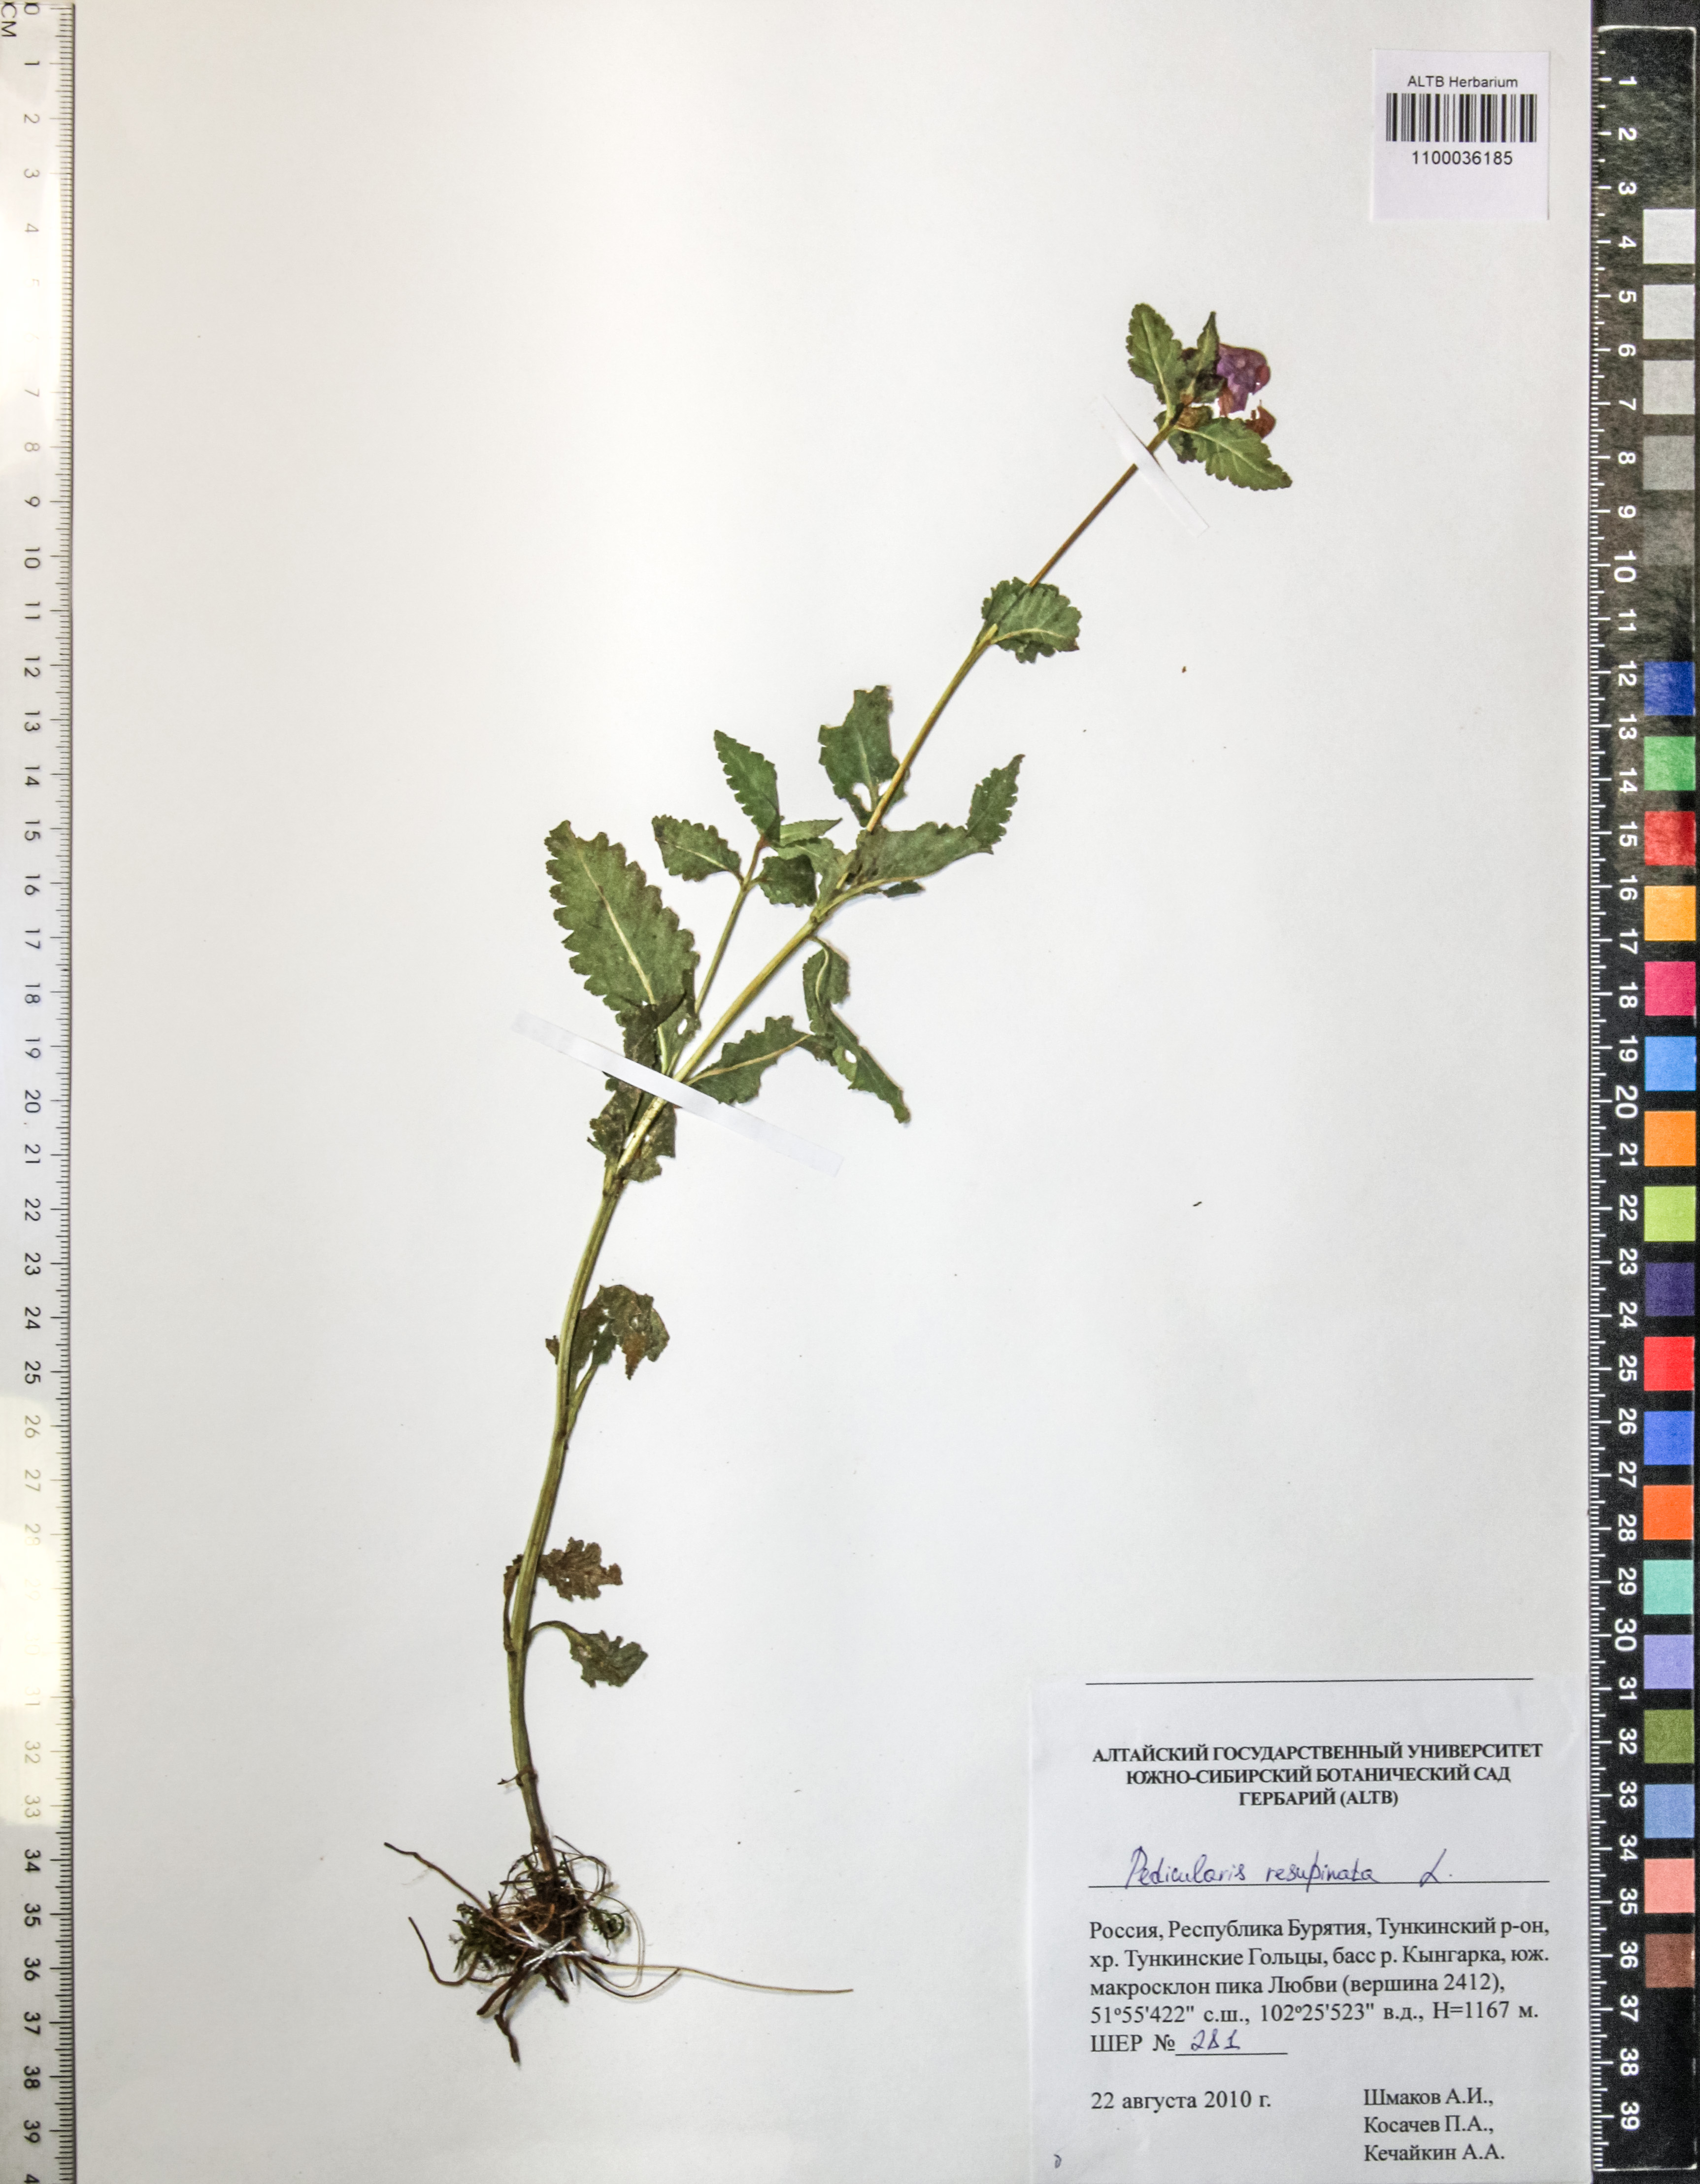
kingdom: Plantae
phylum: Tracheophyta
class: Magnoliopsida
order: Lamiales
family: Orobanchaceae
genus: Pedicularis
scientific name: Pedicularis resupinata
